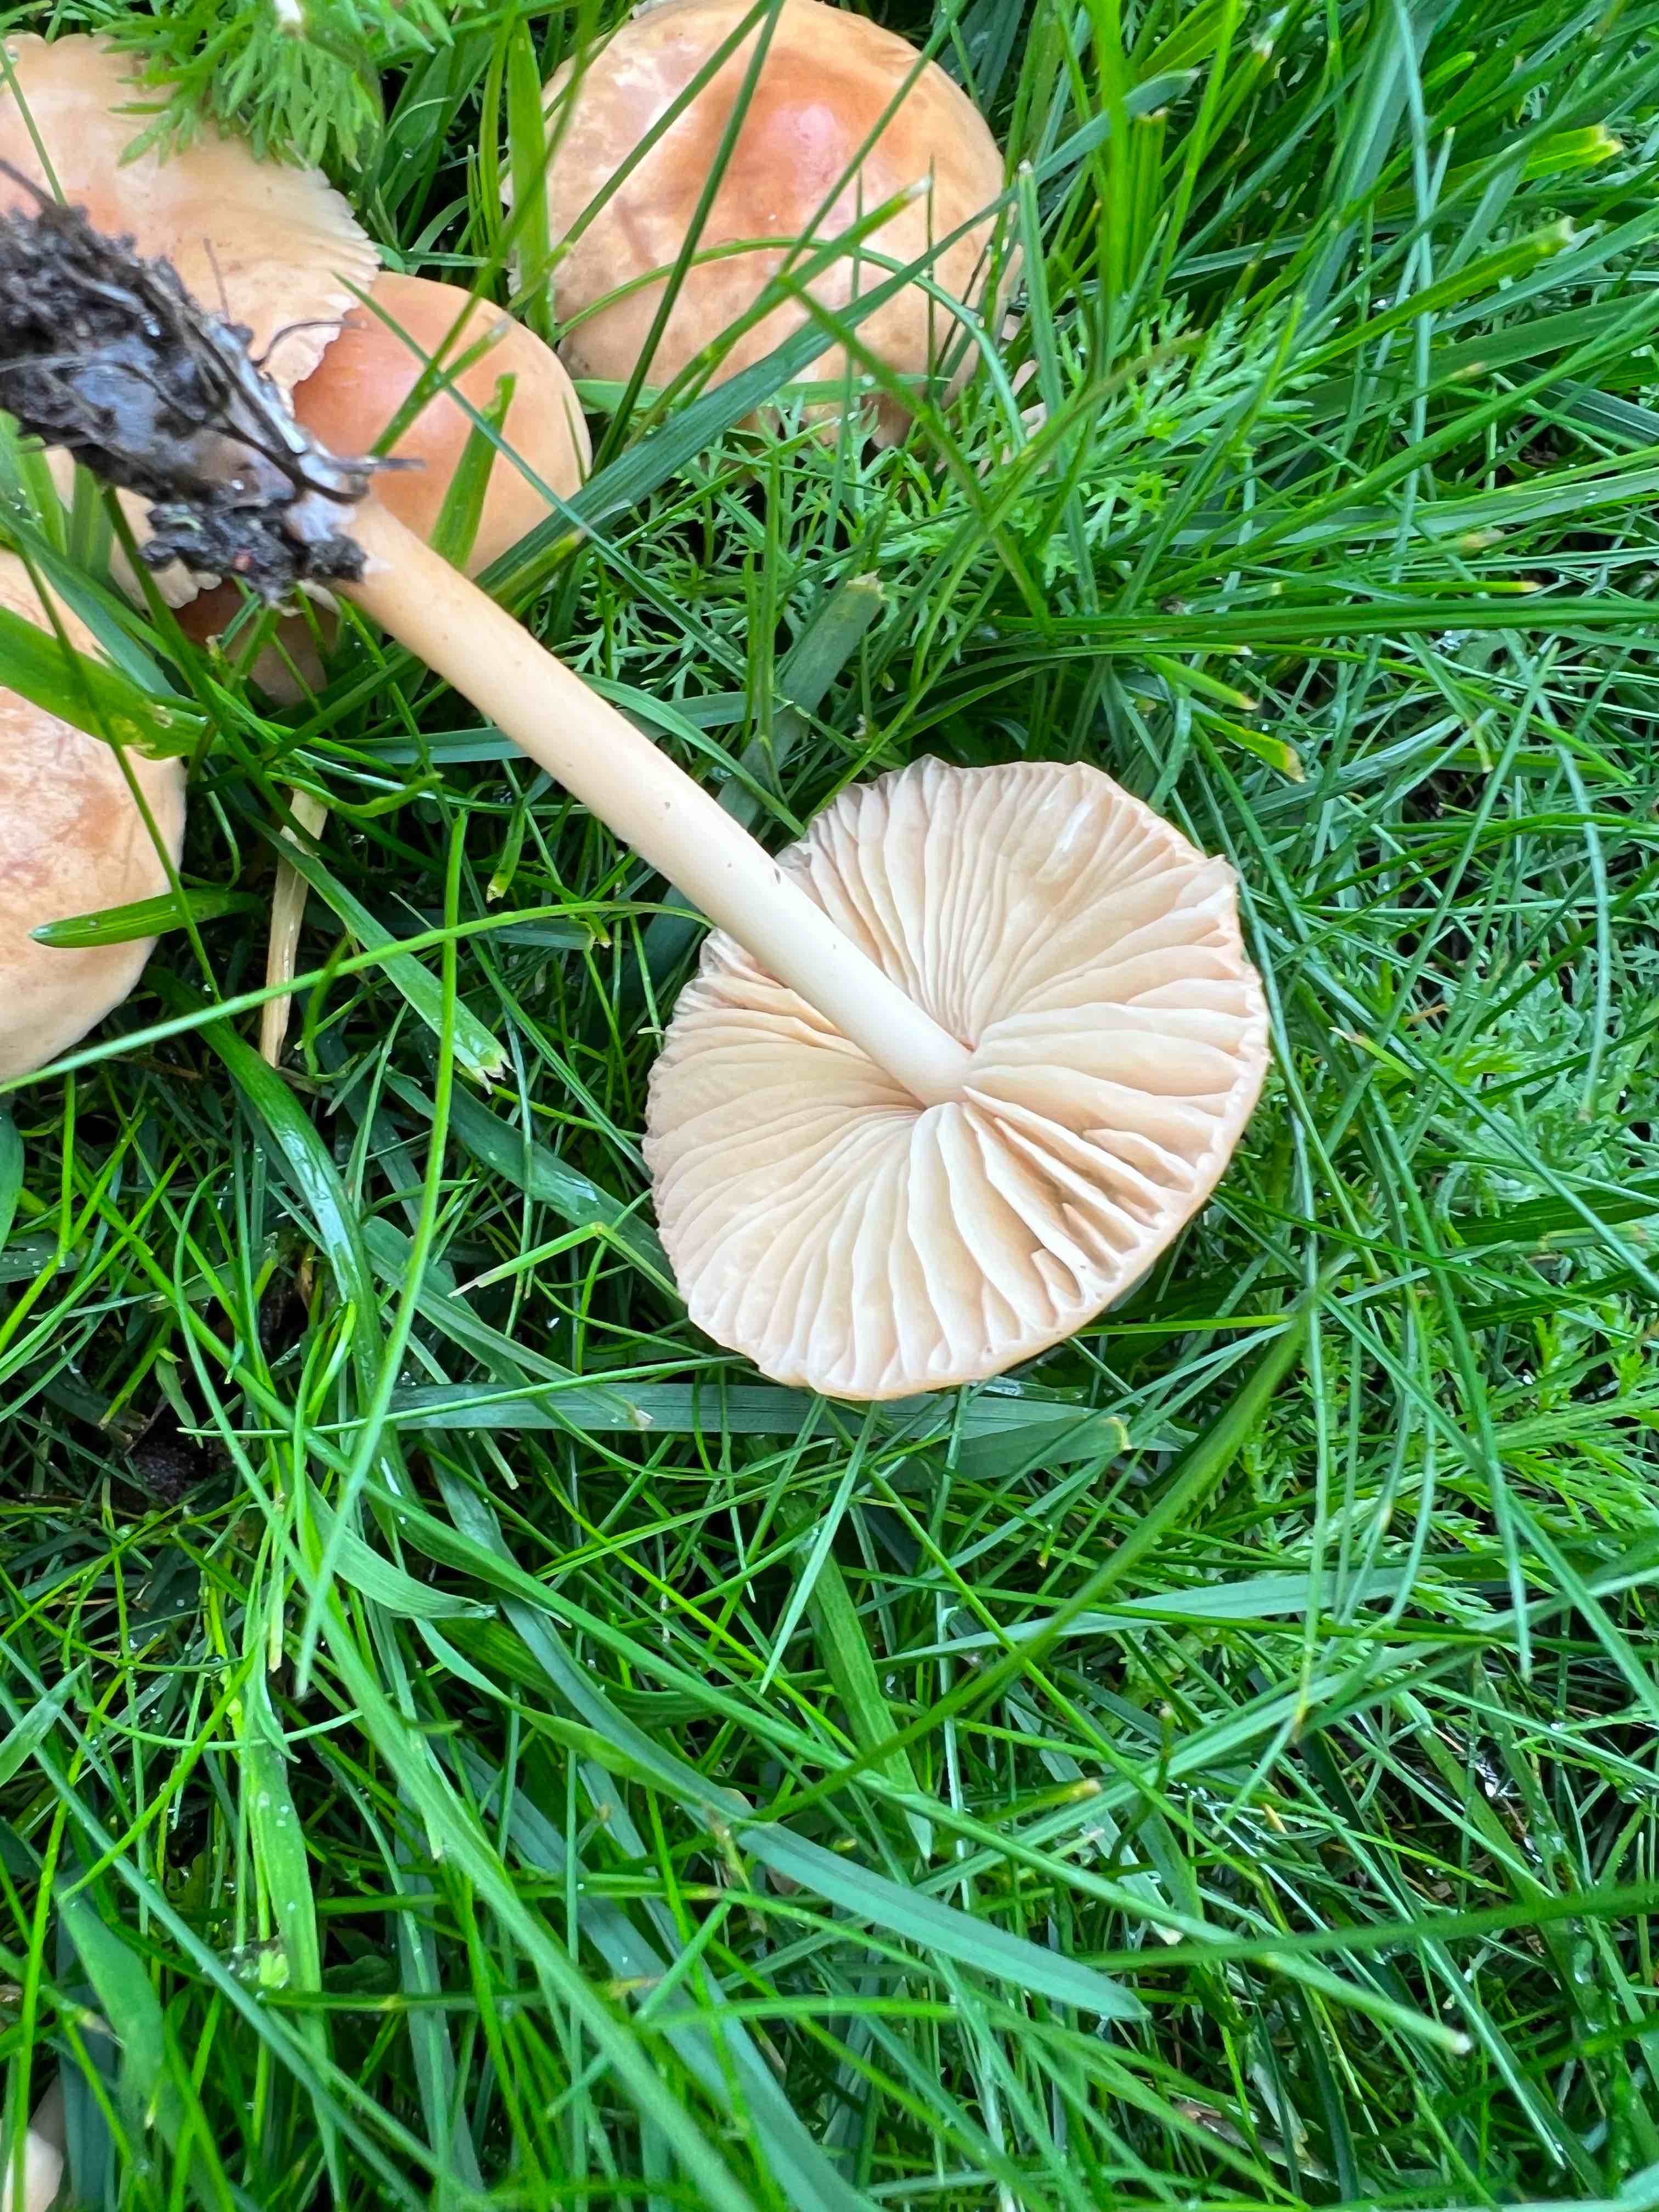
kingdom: Fungi
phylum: Basidiomycota
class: Agaricomycetes
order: Agaricales
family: Marasmiaceae
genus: Marasmius
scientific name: Marasmius oreades
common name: elledans-bruskhat
